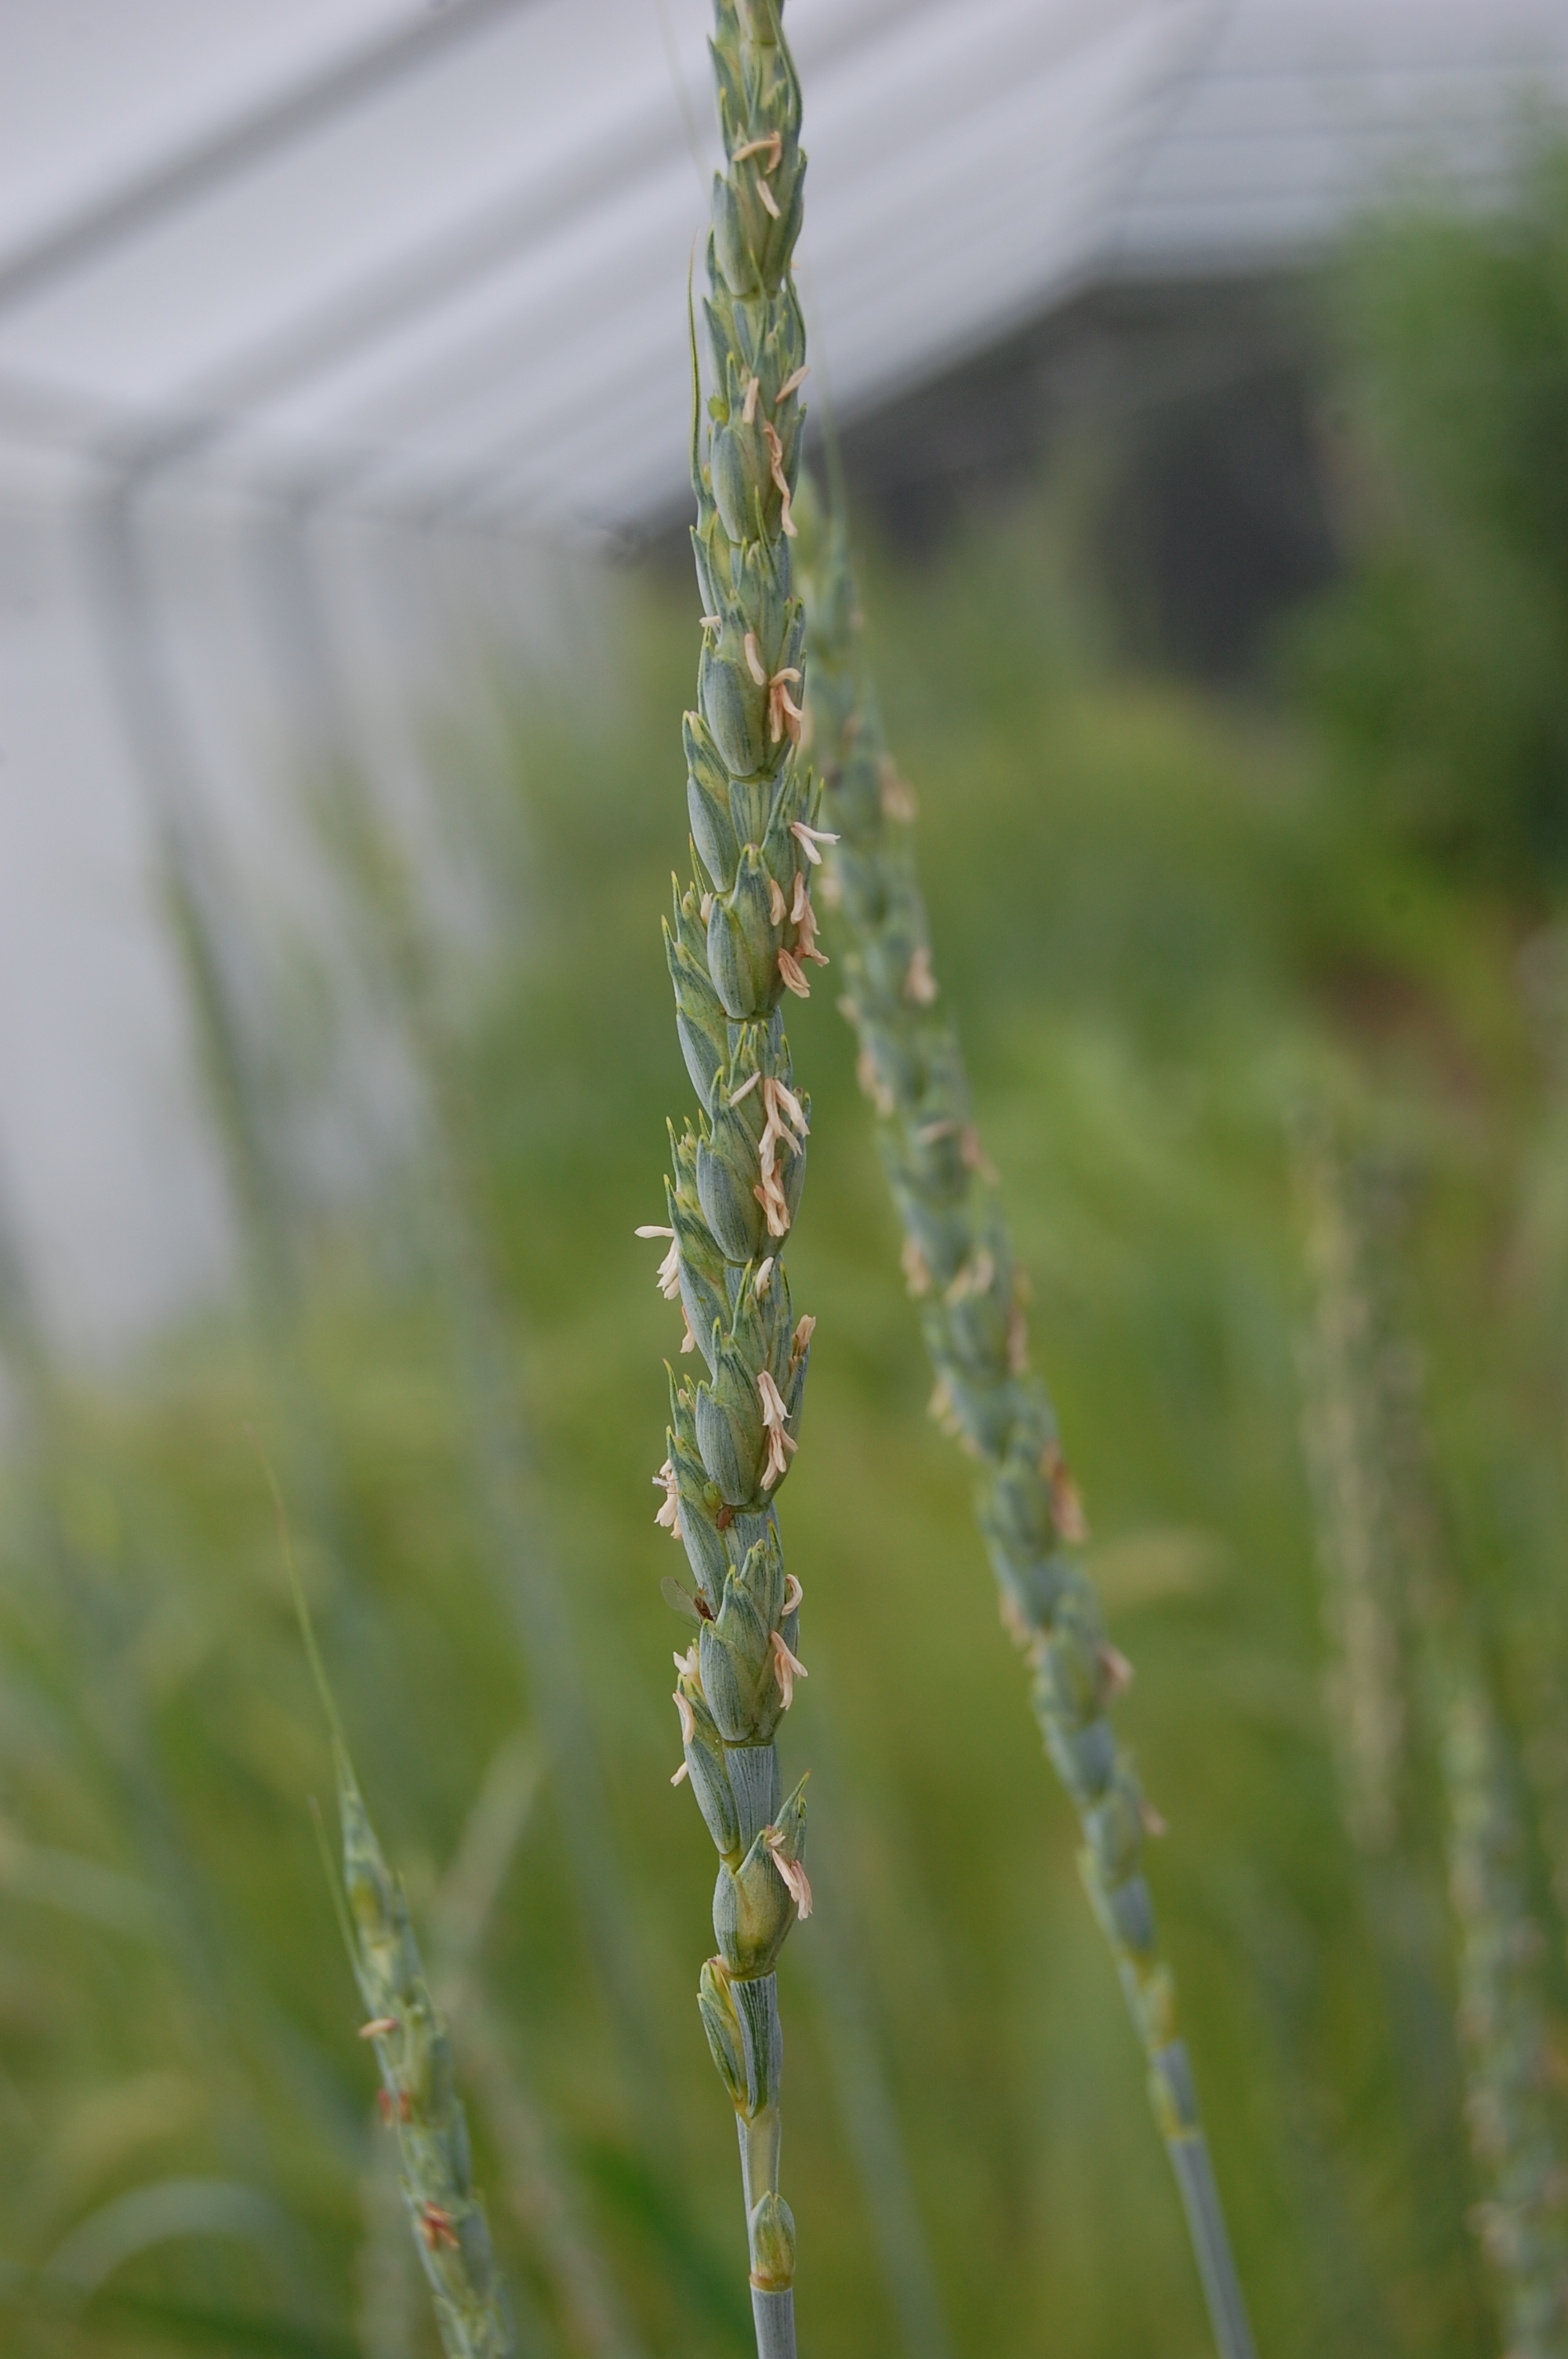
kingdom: Plantae
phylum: Tracheophyta
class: Liliopsida
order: Poales
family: Poaceae
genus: Triticum
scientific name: Triticum aestivum
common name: Common wheat
